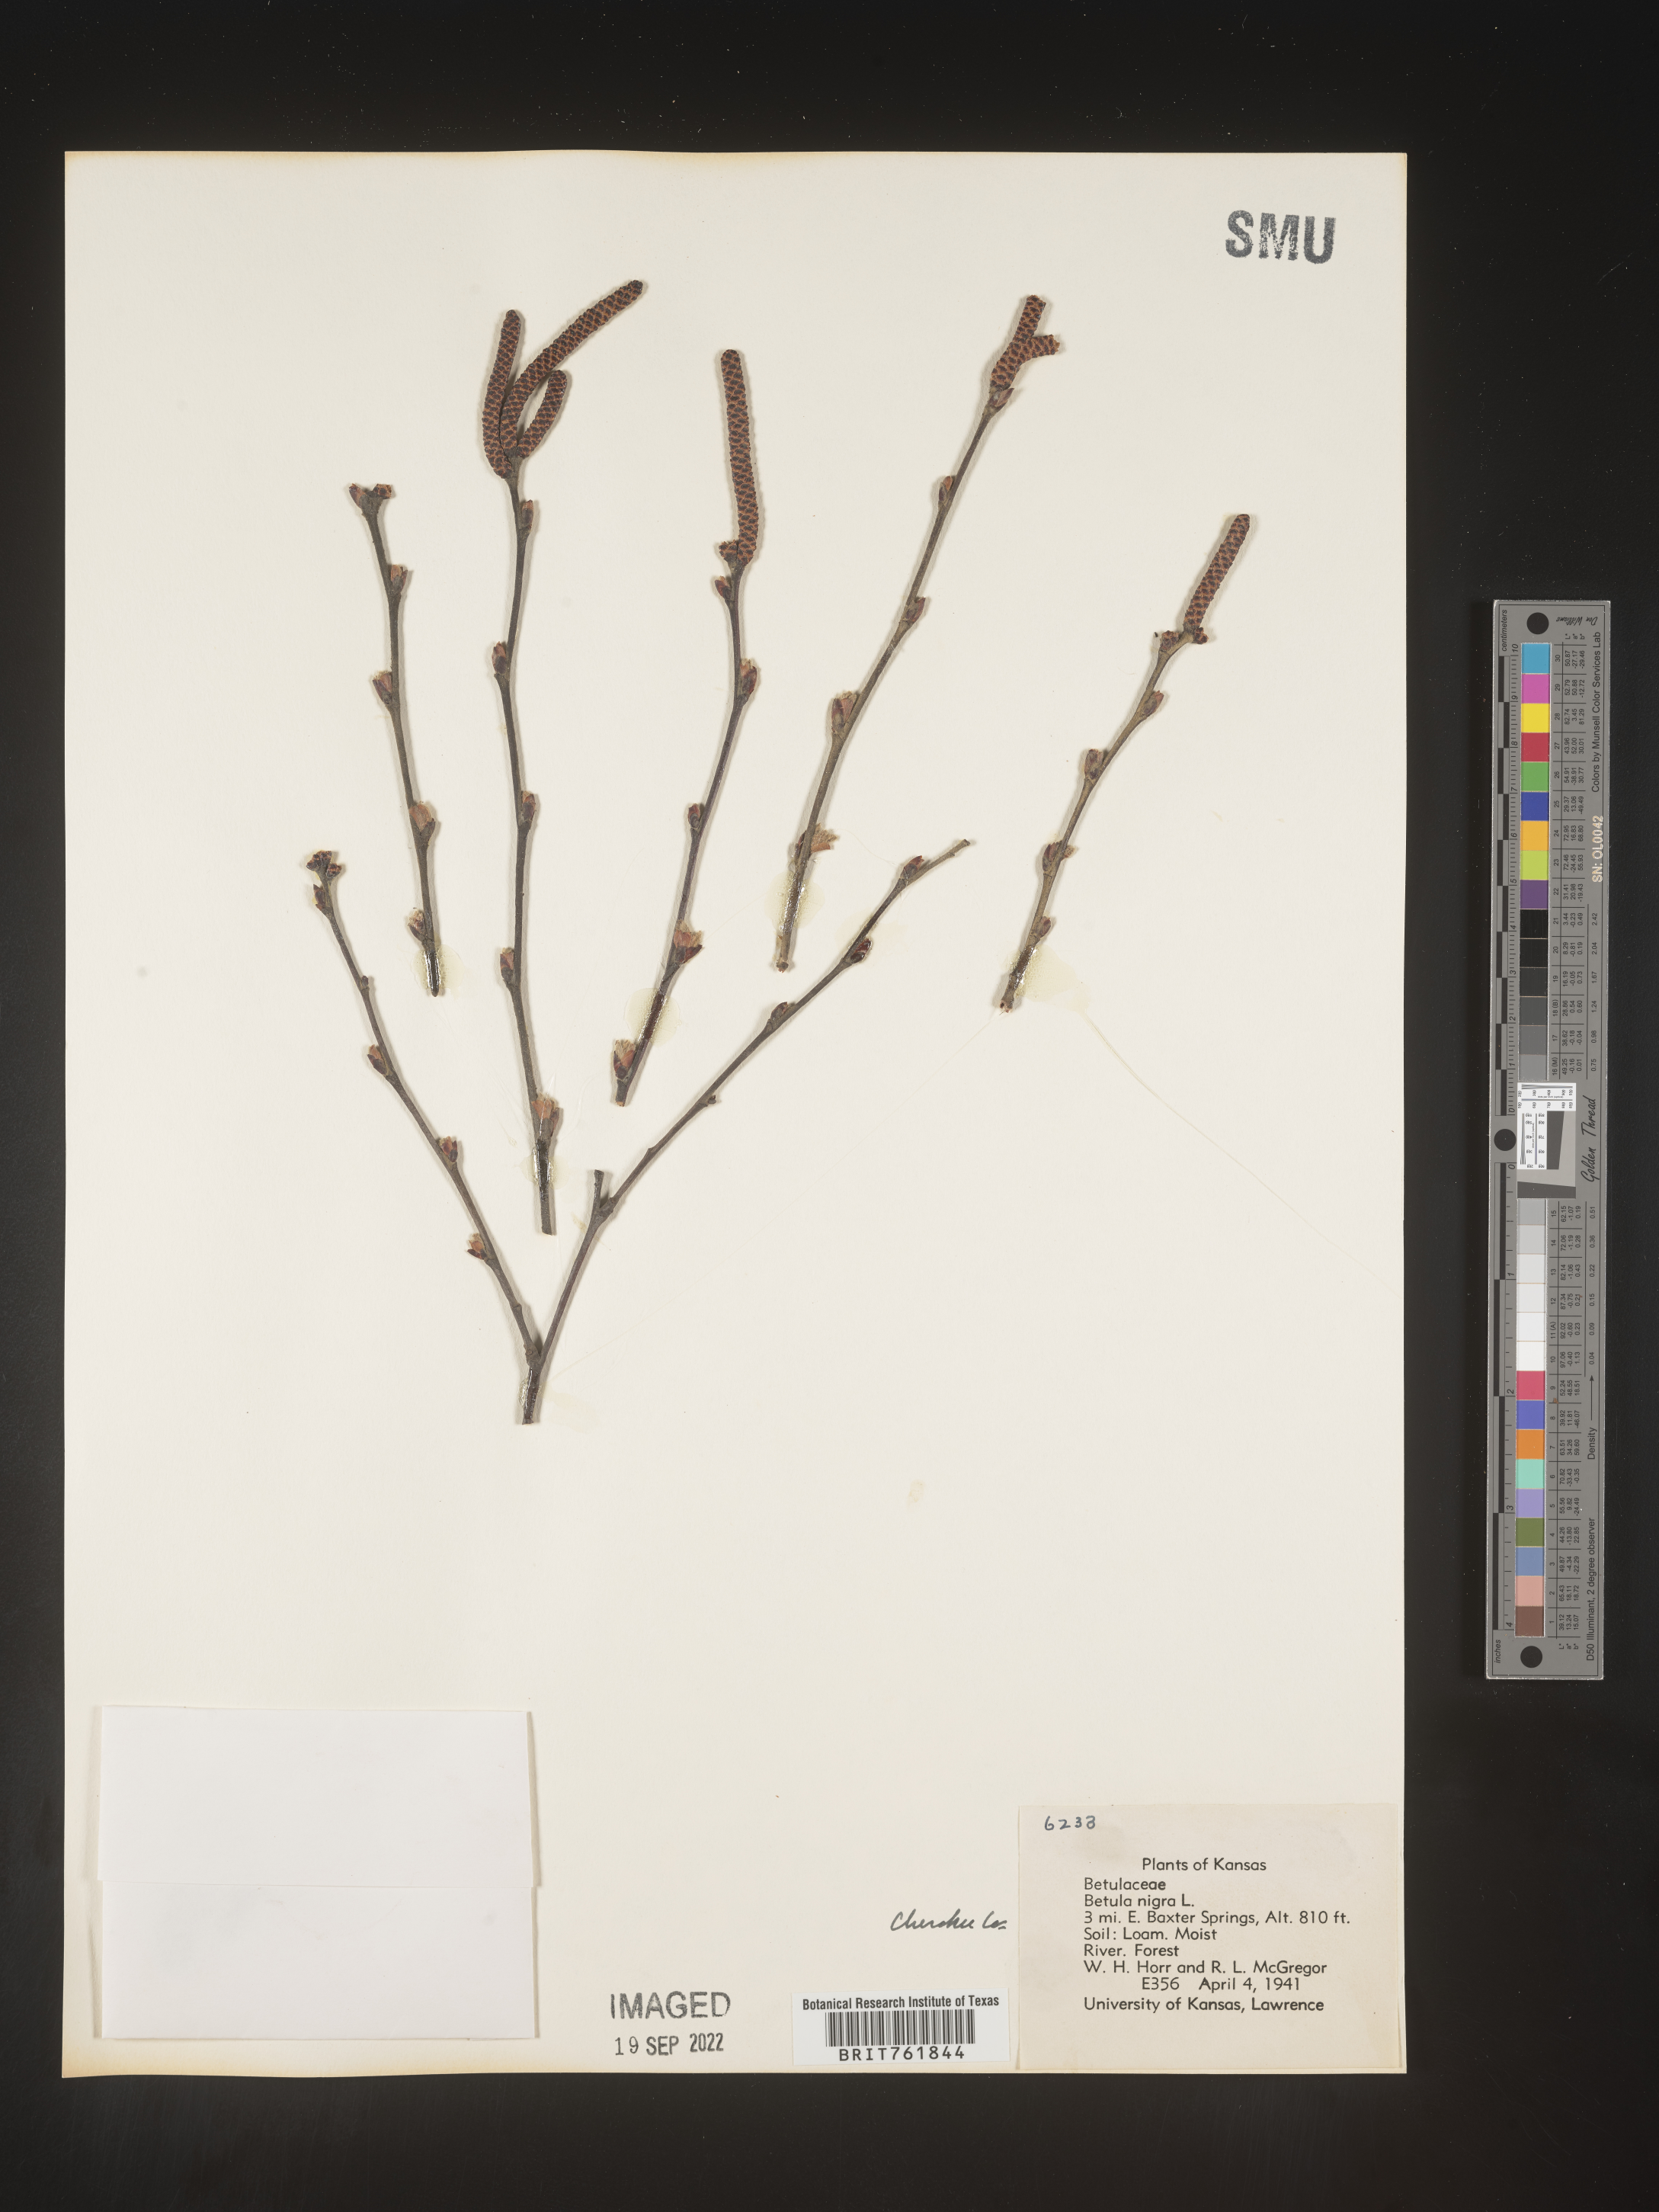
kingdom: Plantae
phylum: Tracheophyta
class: Magnoliopsida
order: Fagales
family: Betulaceae
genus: Betula
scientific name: Betula nigra
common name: Black birch
